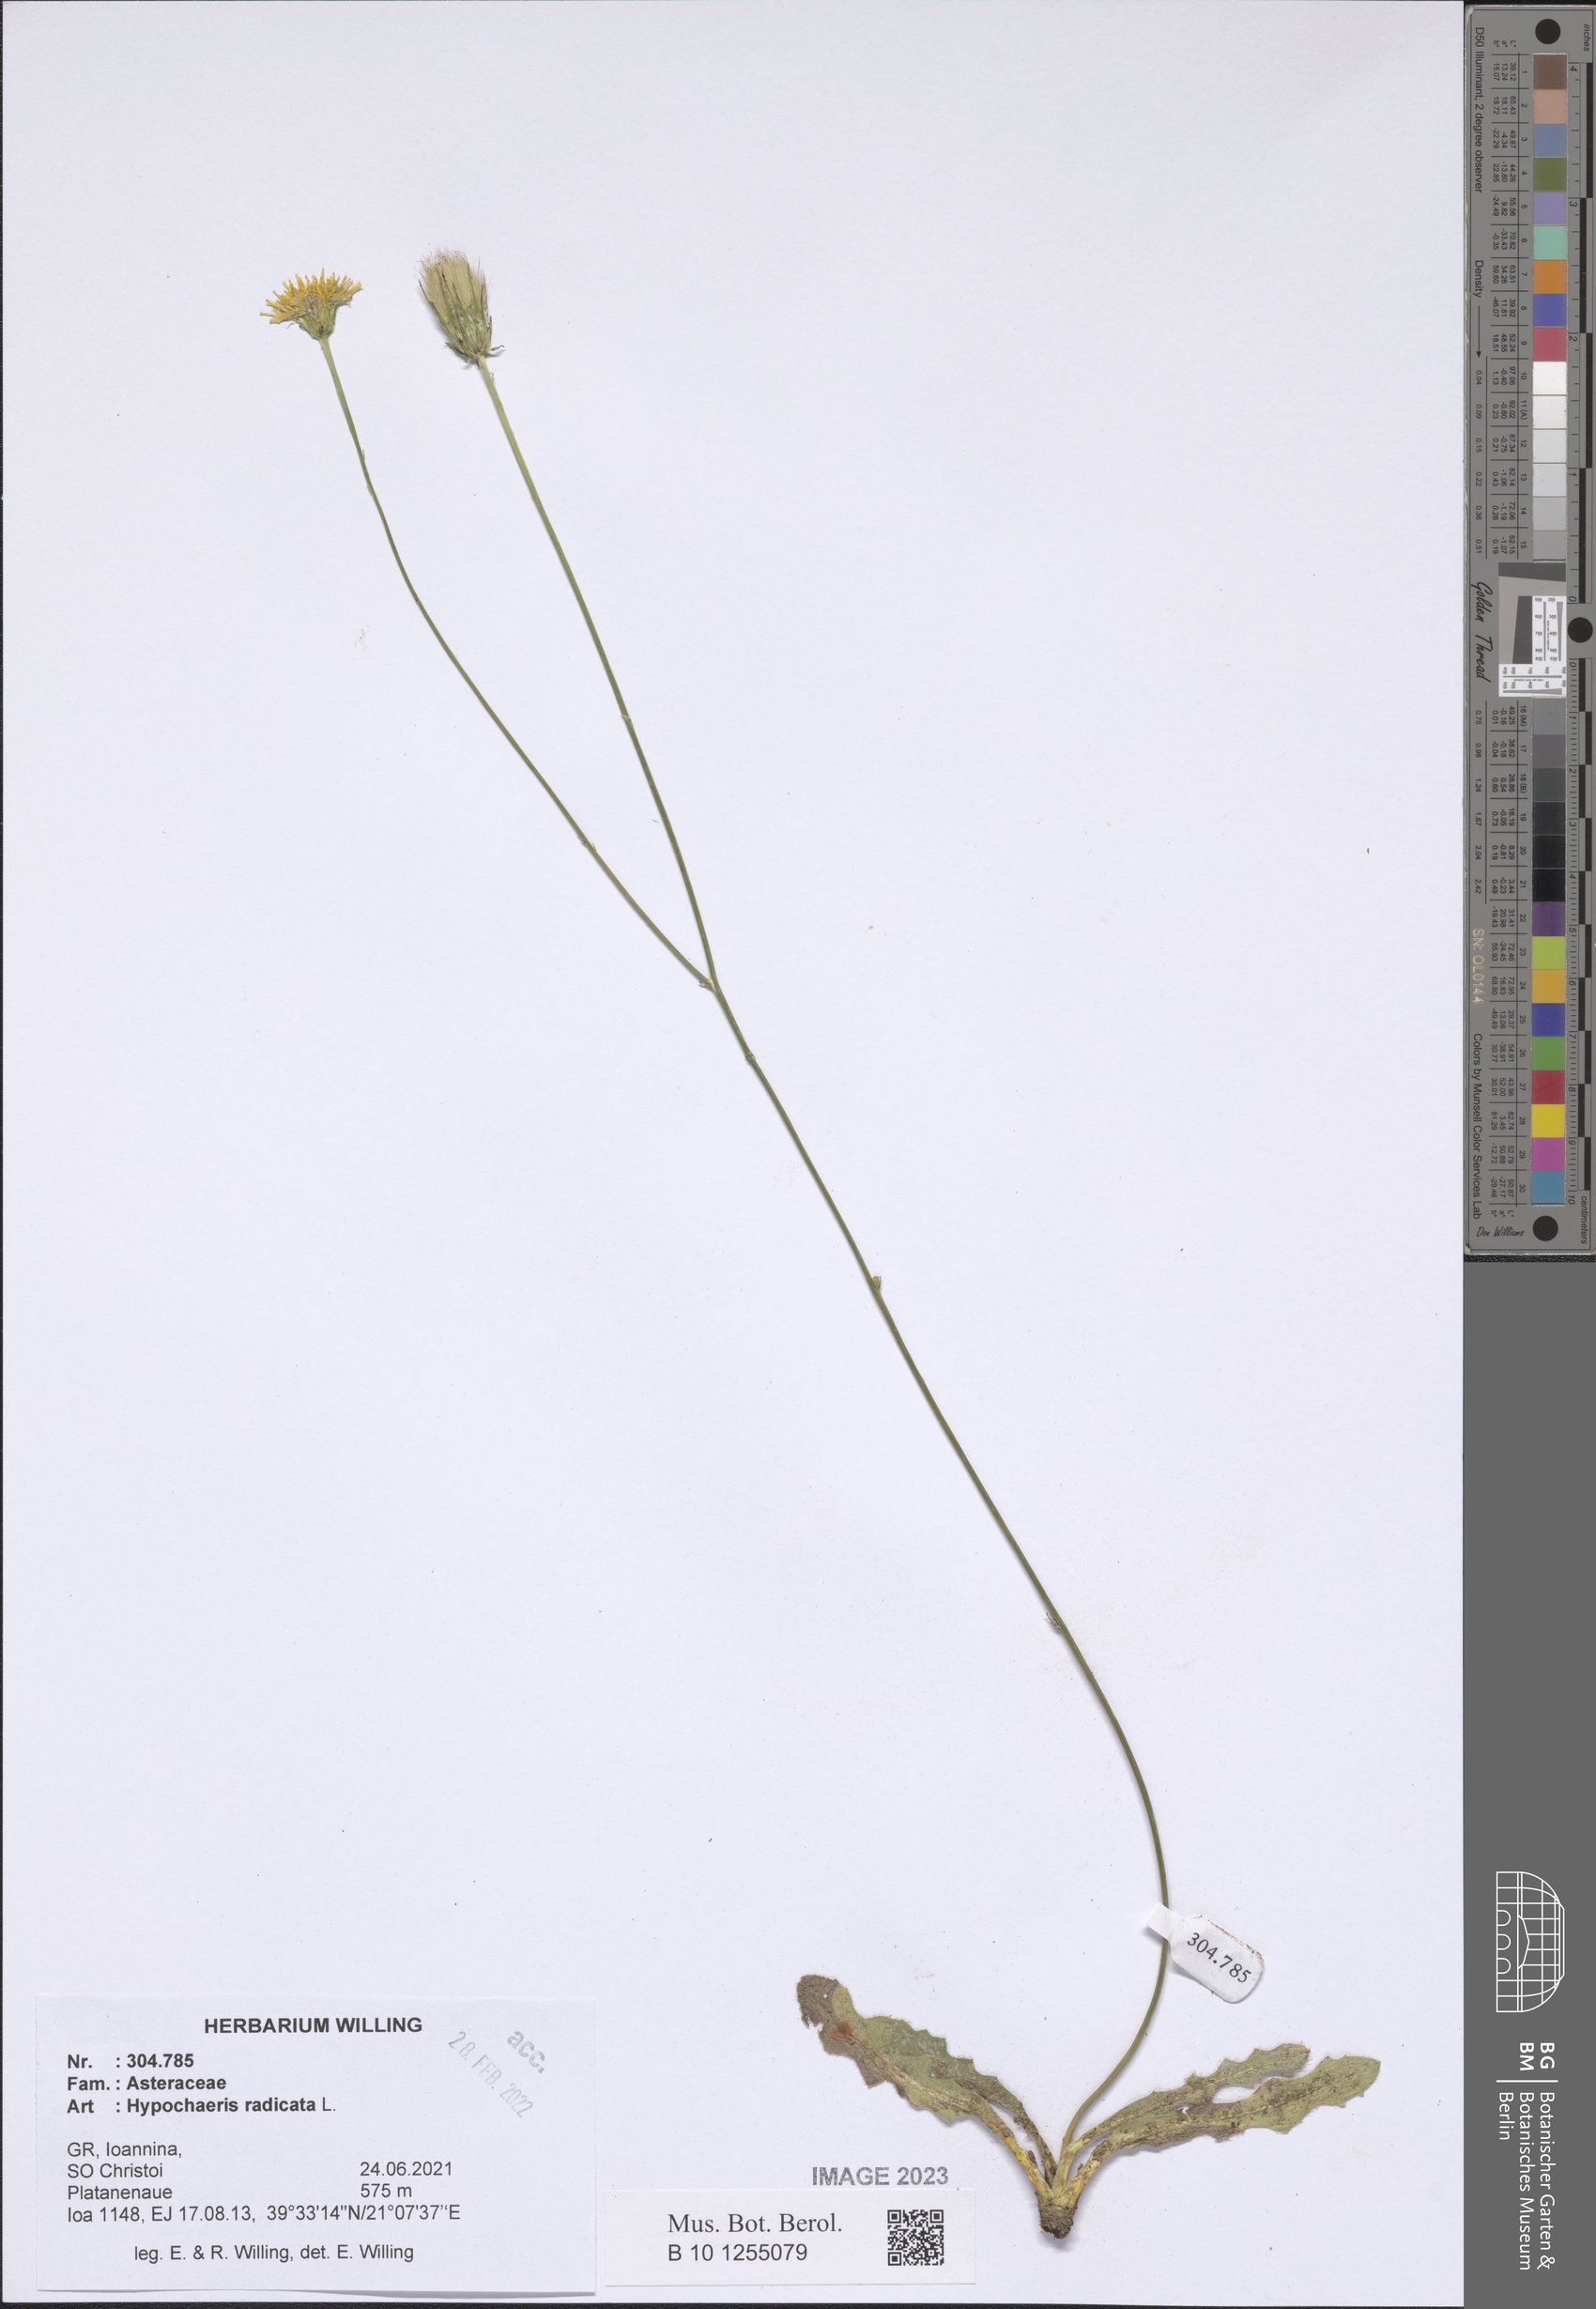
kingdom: Plantae
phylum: Tracheophyta
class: Magnoliopsida
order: Asterales
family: Asteraceae
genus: Hypochaeris
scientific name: Hypochaeris radicata
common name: Flatweed
